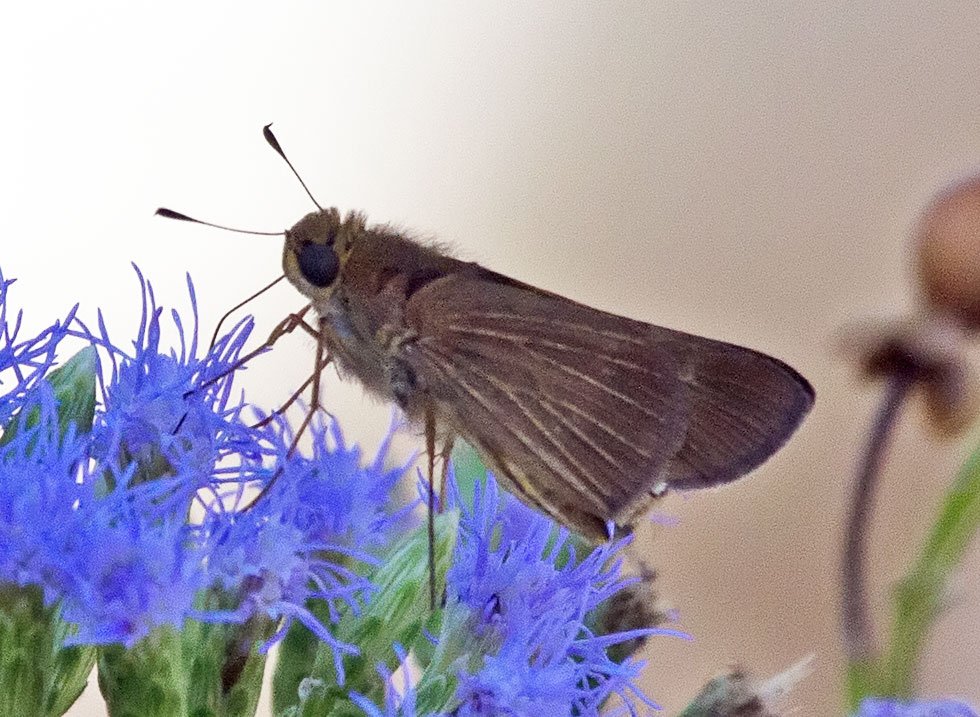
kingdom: Animalia
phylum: Arthropoda
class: Insecta
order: Lepidoptera
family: Hesperiidae
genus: Lerodea
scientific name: Lerodea eufala
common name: Eufala Skipper
